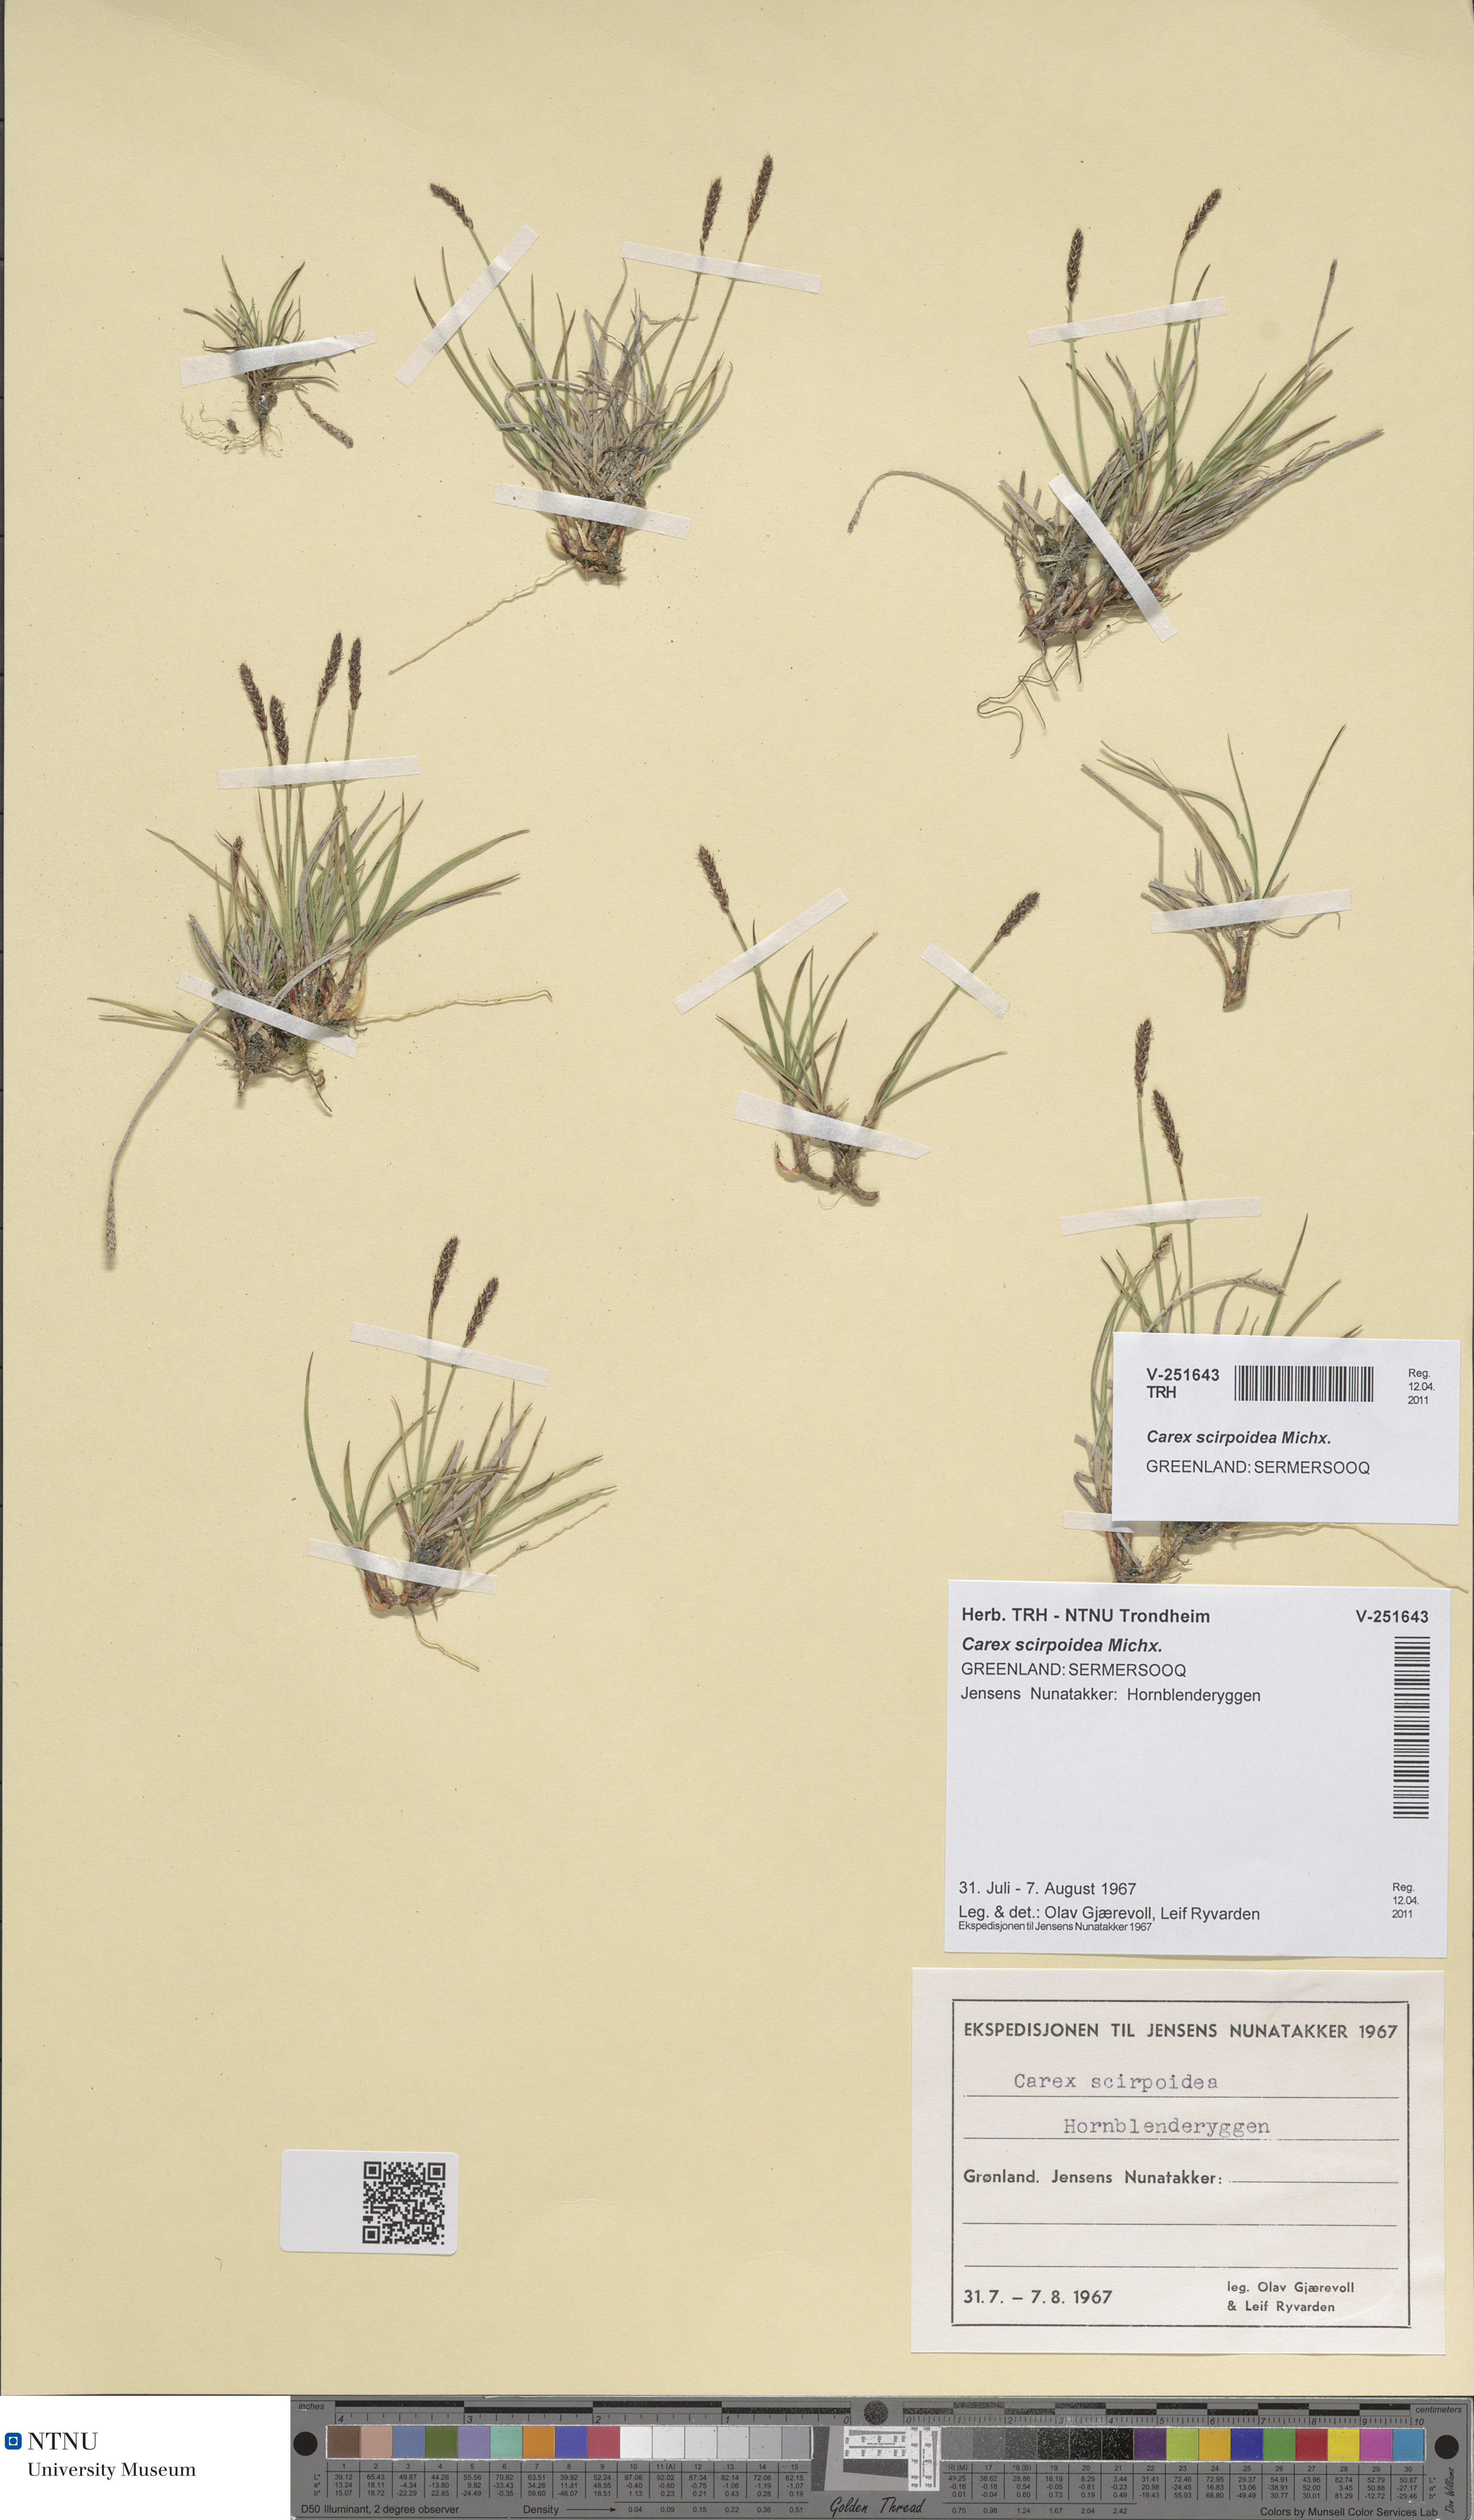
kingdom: Plantae
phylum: Tracheophyta
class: Liliopsida
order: Poales
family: Cyperaceae
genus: Carex
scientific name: Carex scirpoidea
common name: Canada single-spike sedge
